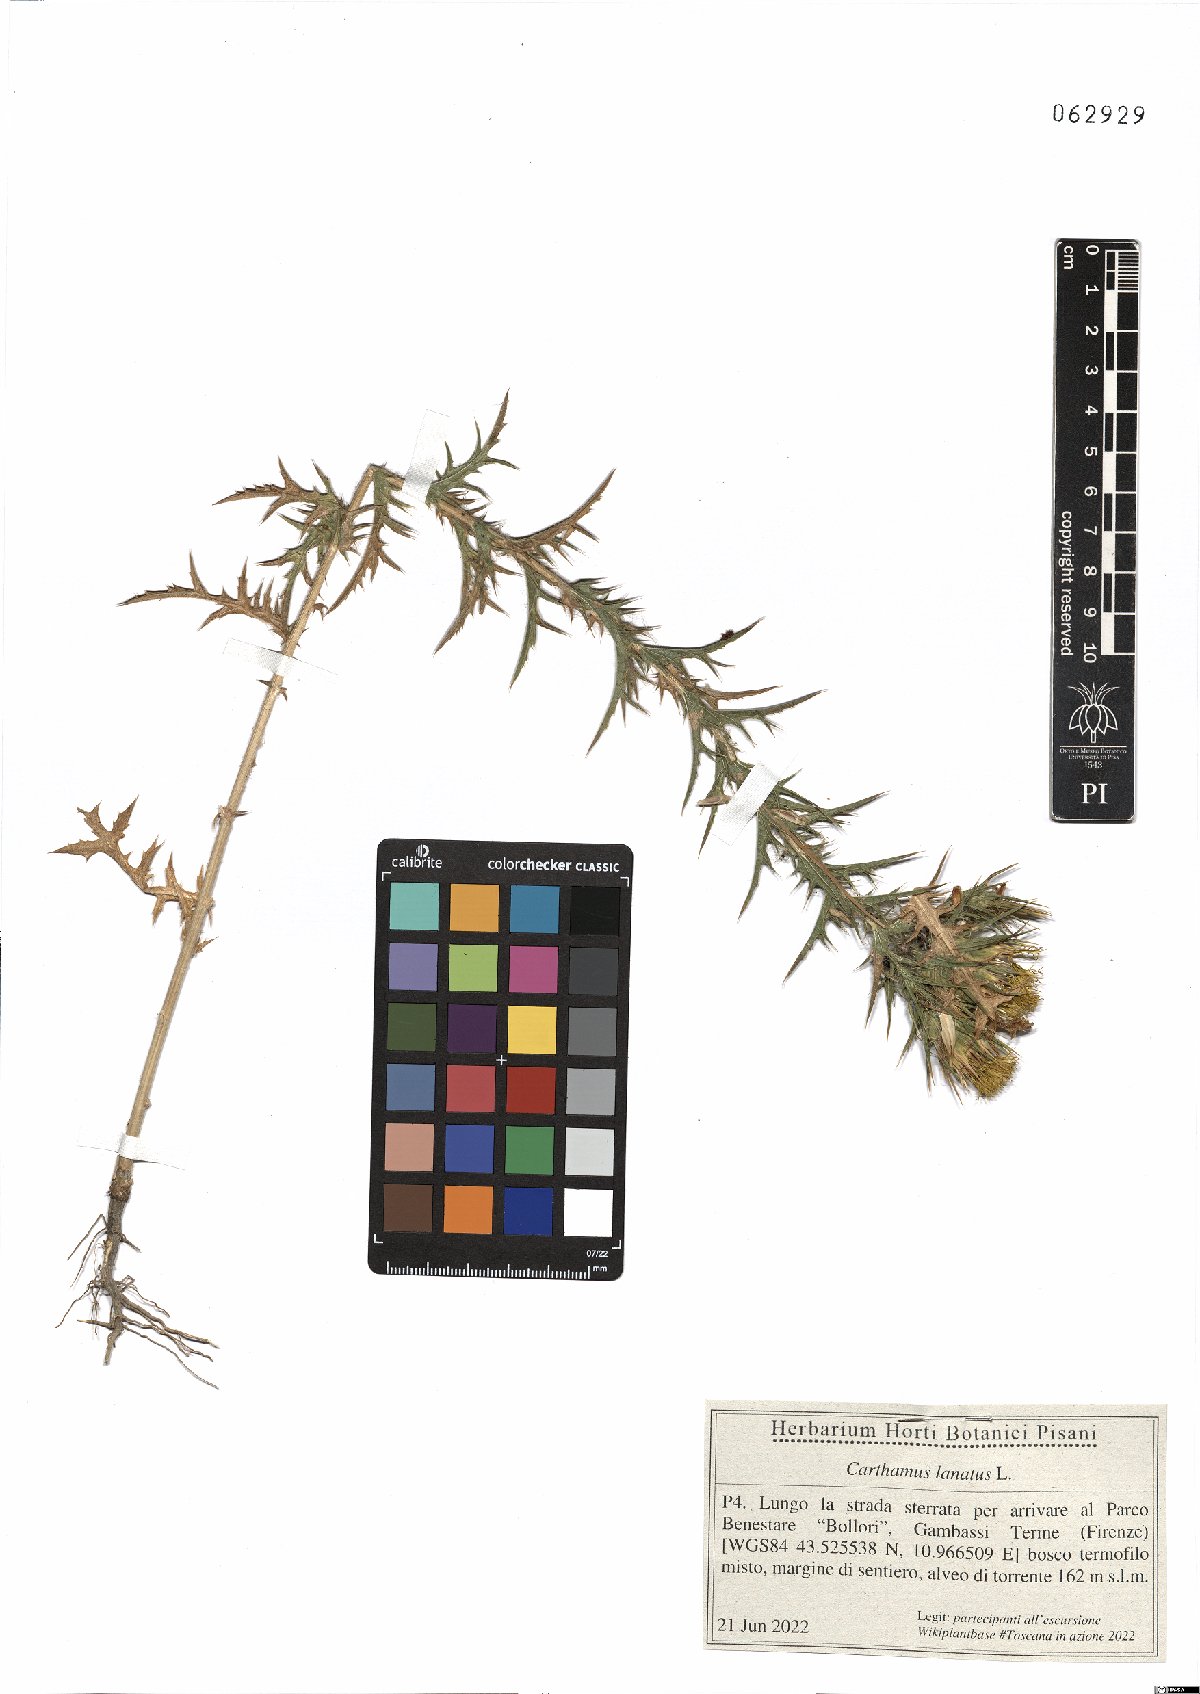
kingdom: Plantae
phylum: Tracheophyta
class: Magnoliopsida
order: Asterales
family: Asteraceae
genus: Carthamus
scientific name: Carthamus lanatus
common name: Downy safflower
